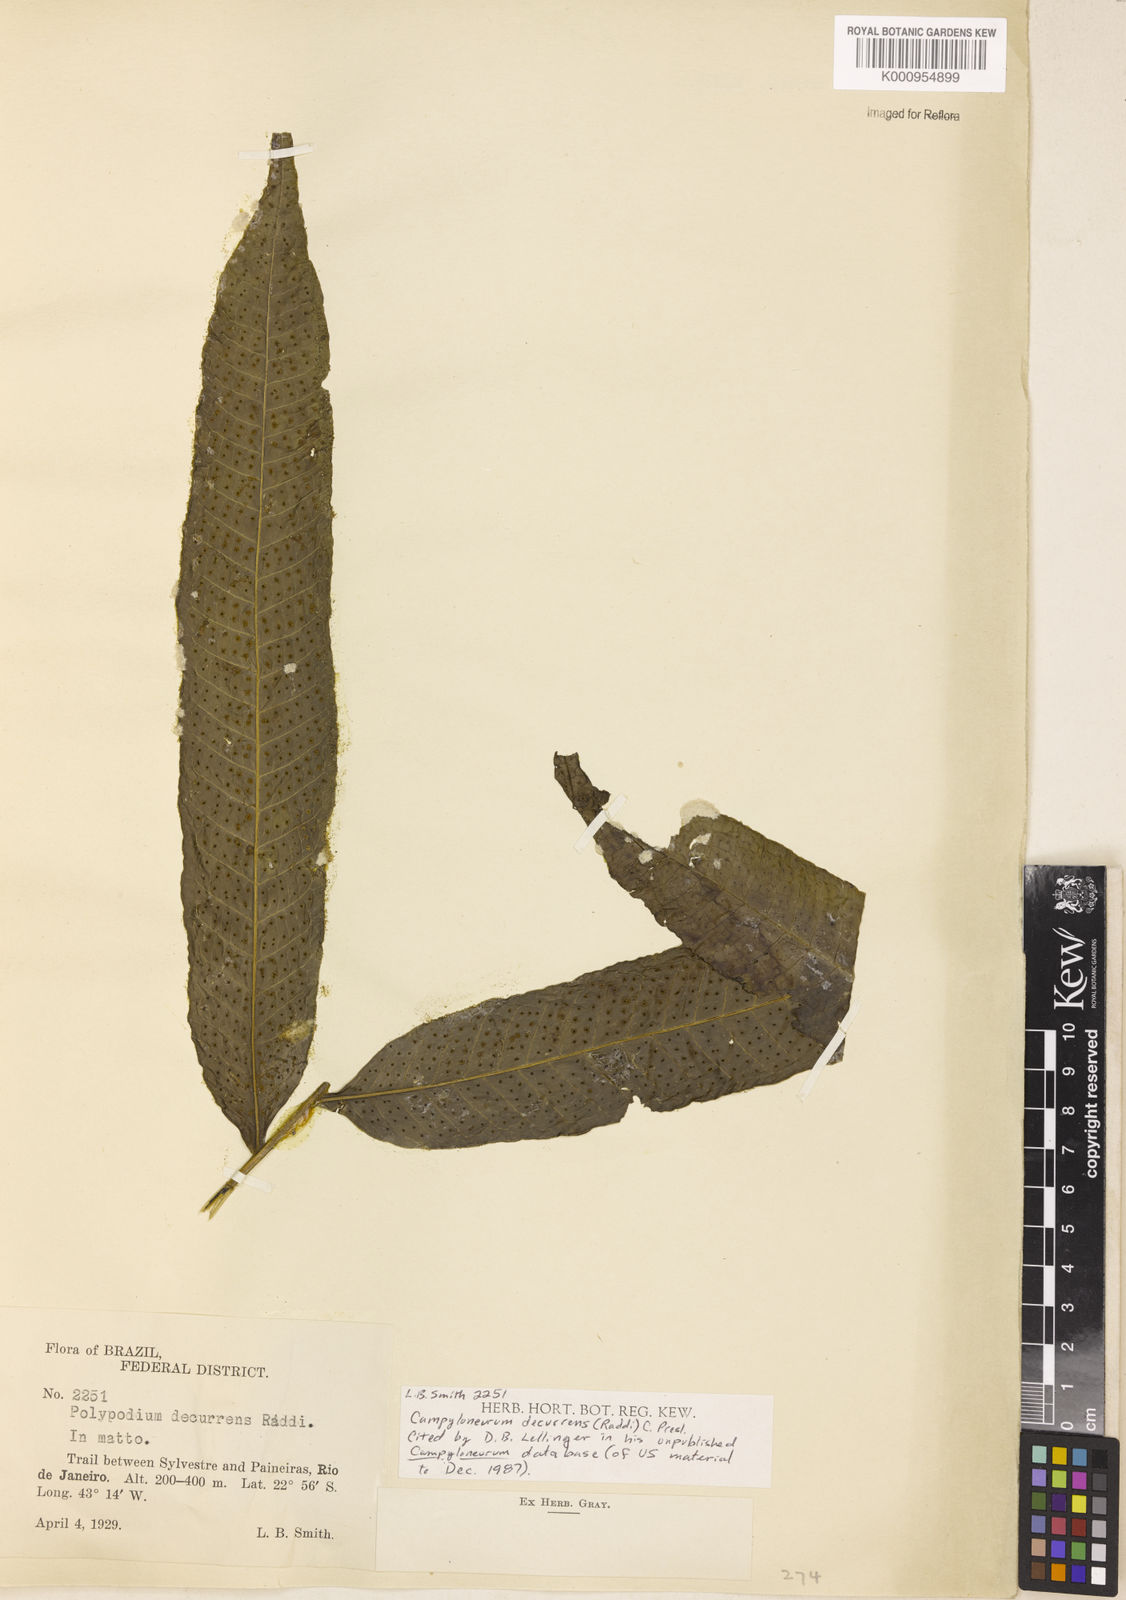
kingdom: Plantae
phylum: Tracheophyta
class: Polypodiopsida
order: Polypodiales
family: Polypodiaceae
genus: Campyloneurum
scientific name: Campyloneurum decurrens
